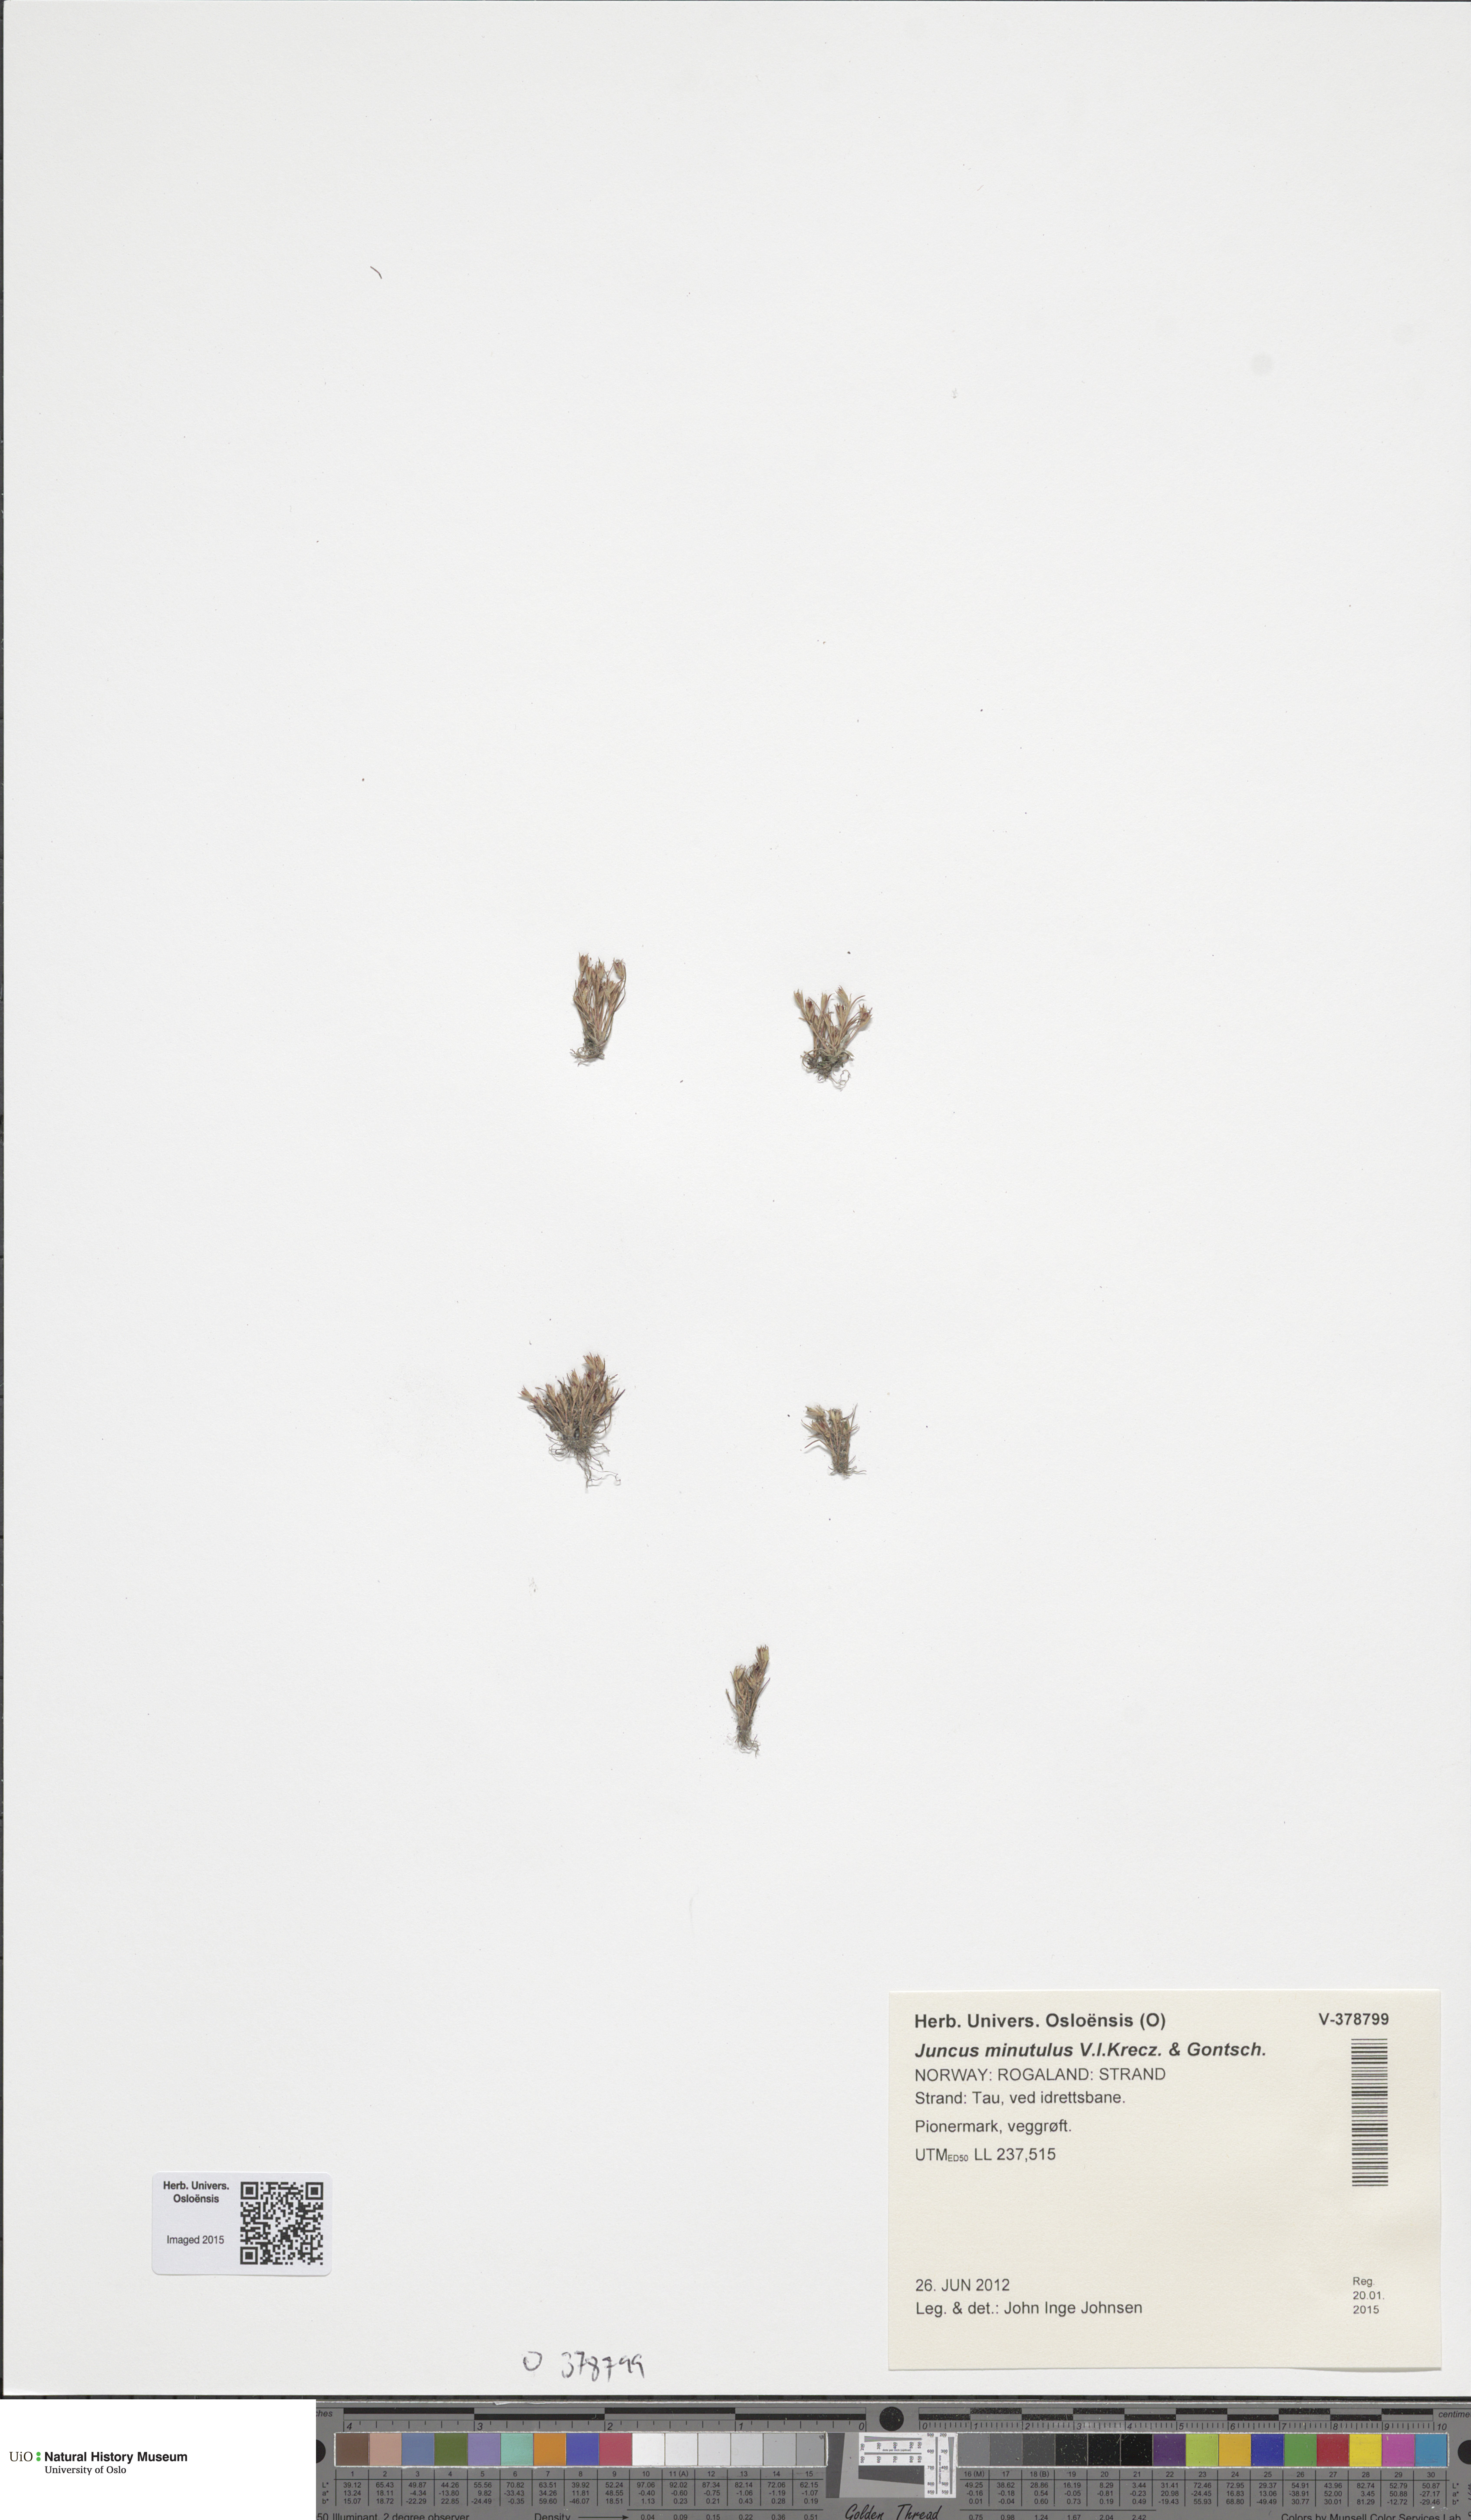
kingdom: Plantae
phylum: Tracheophyta
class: Liliopsida
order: Poales
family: Juncaceae
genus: Juncus
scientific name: Juncus minutulus
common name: Minute rush
